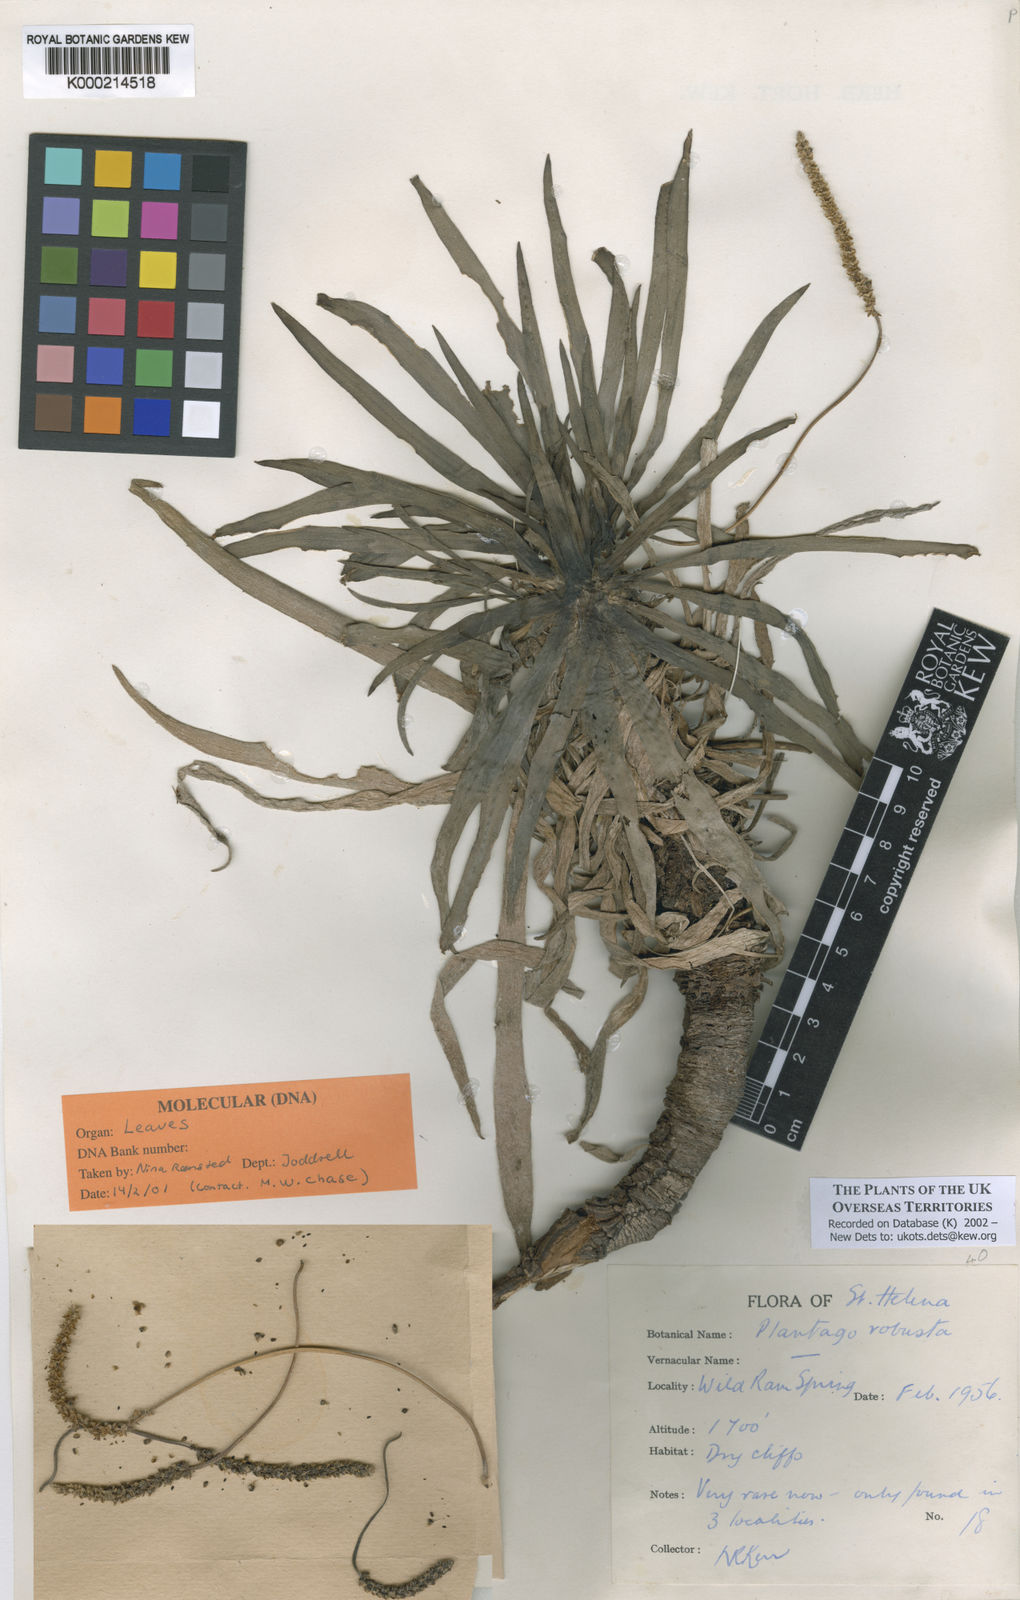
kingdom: Plantae
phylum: Tracheophyta
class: Magnoliopsida
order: Lamiales
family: Plantaginaceae
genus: Plantago
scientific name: Plantago robusta
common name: St helena plantain
